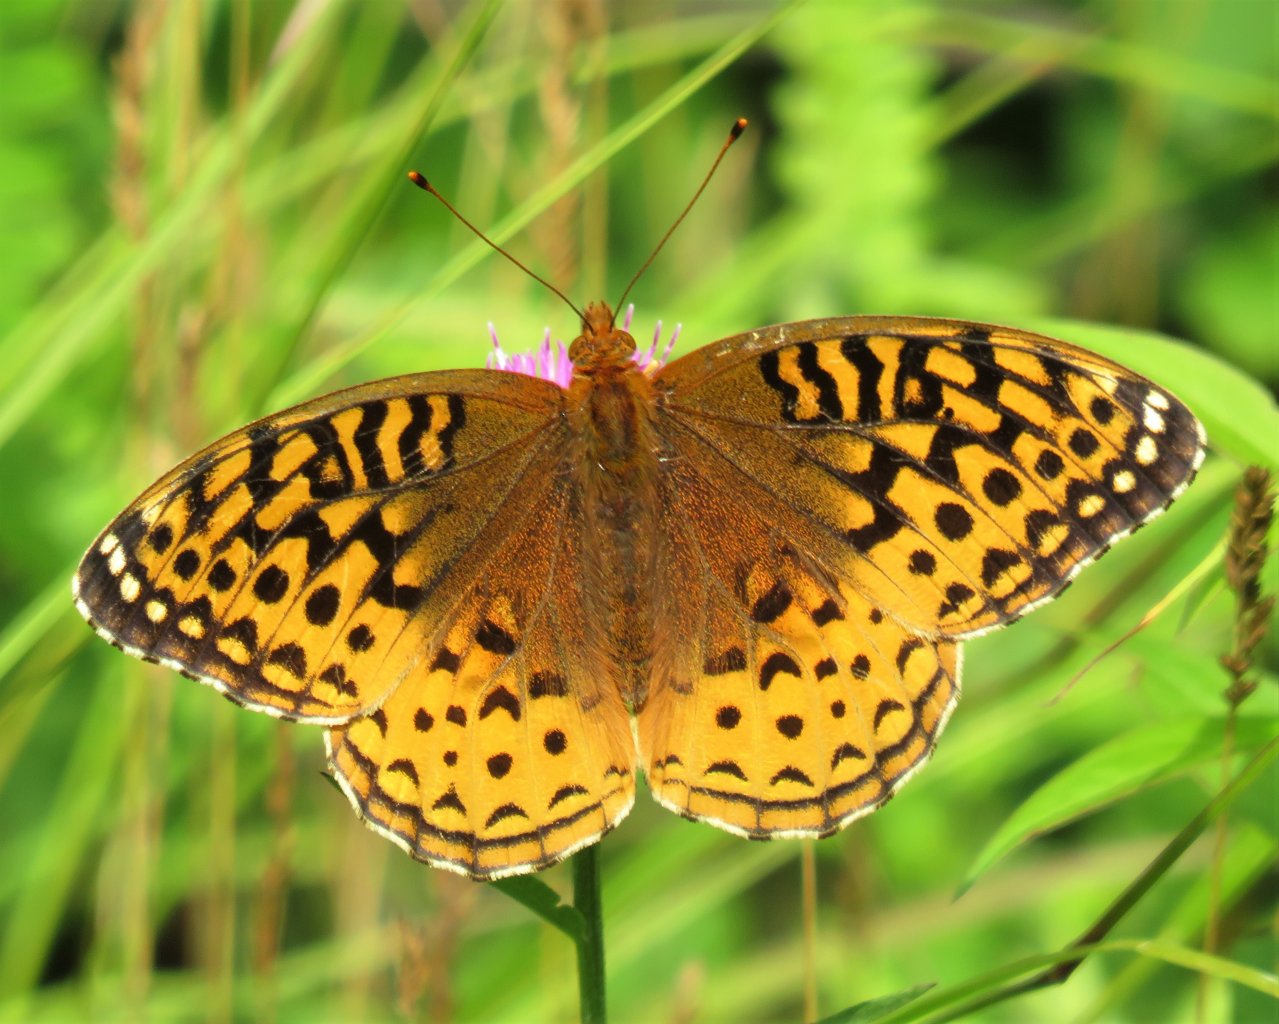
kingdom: Animalia
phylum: Arthropoda
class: Insecta
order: Lepidoptera
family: Nymphalidae
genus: Speyeria
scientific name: Speyeria cybele
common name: Great Spangled Fritillary
